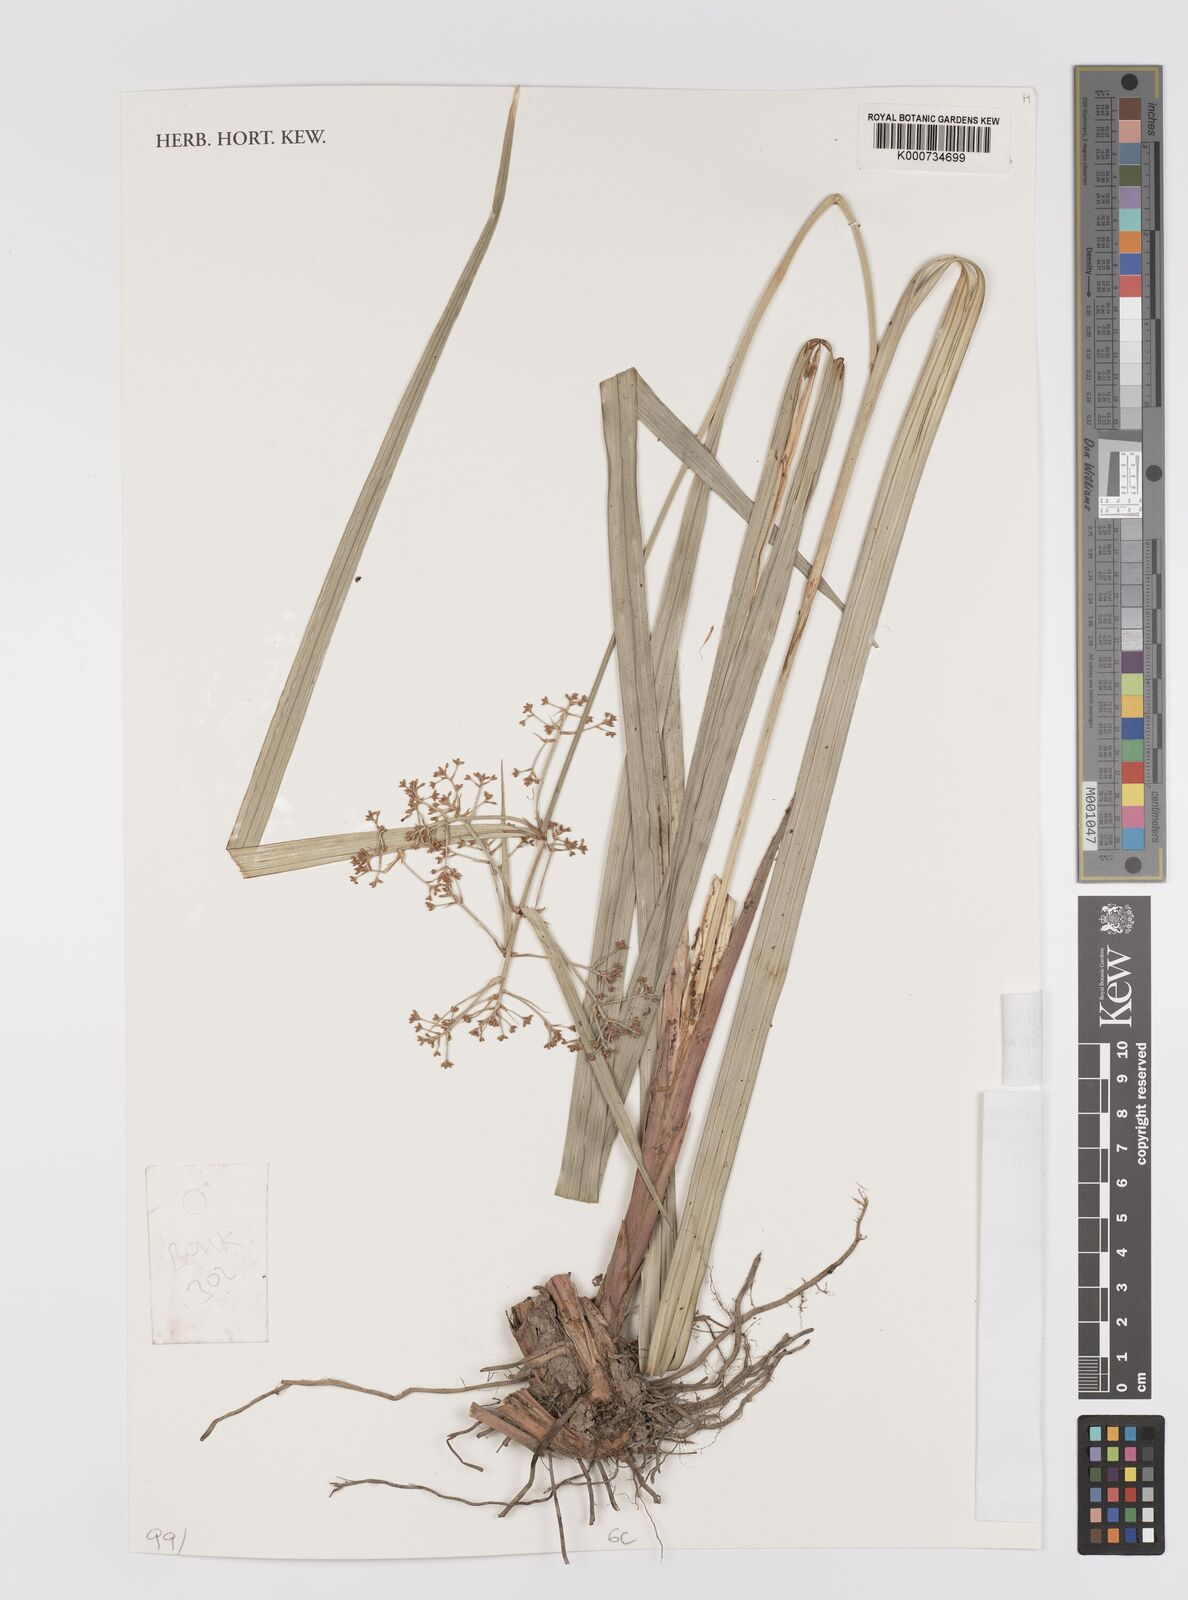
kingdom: Plantae
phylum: Tracheophyta
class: Liliopsida
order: Poales
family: Cyperaceae
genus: Hypolytrum
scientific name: Hypolytrum nemorum
